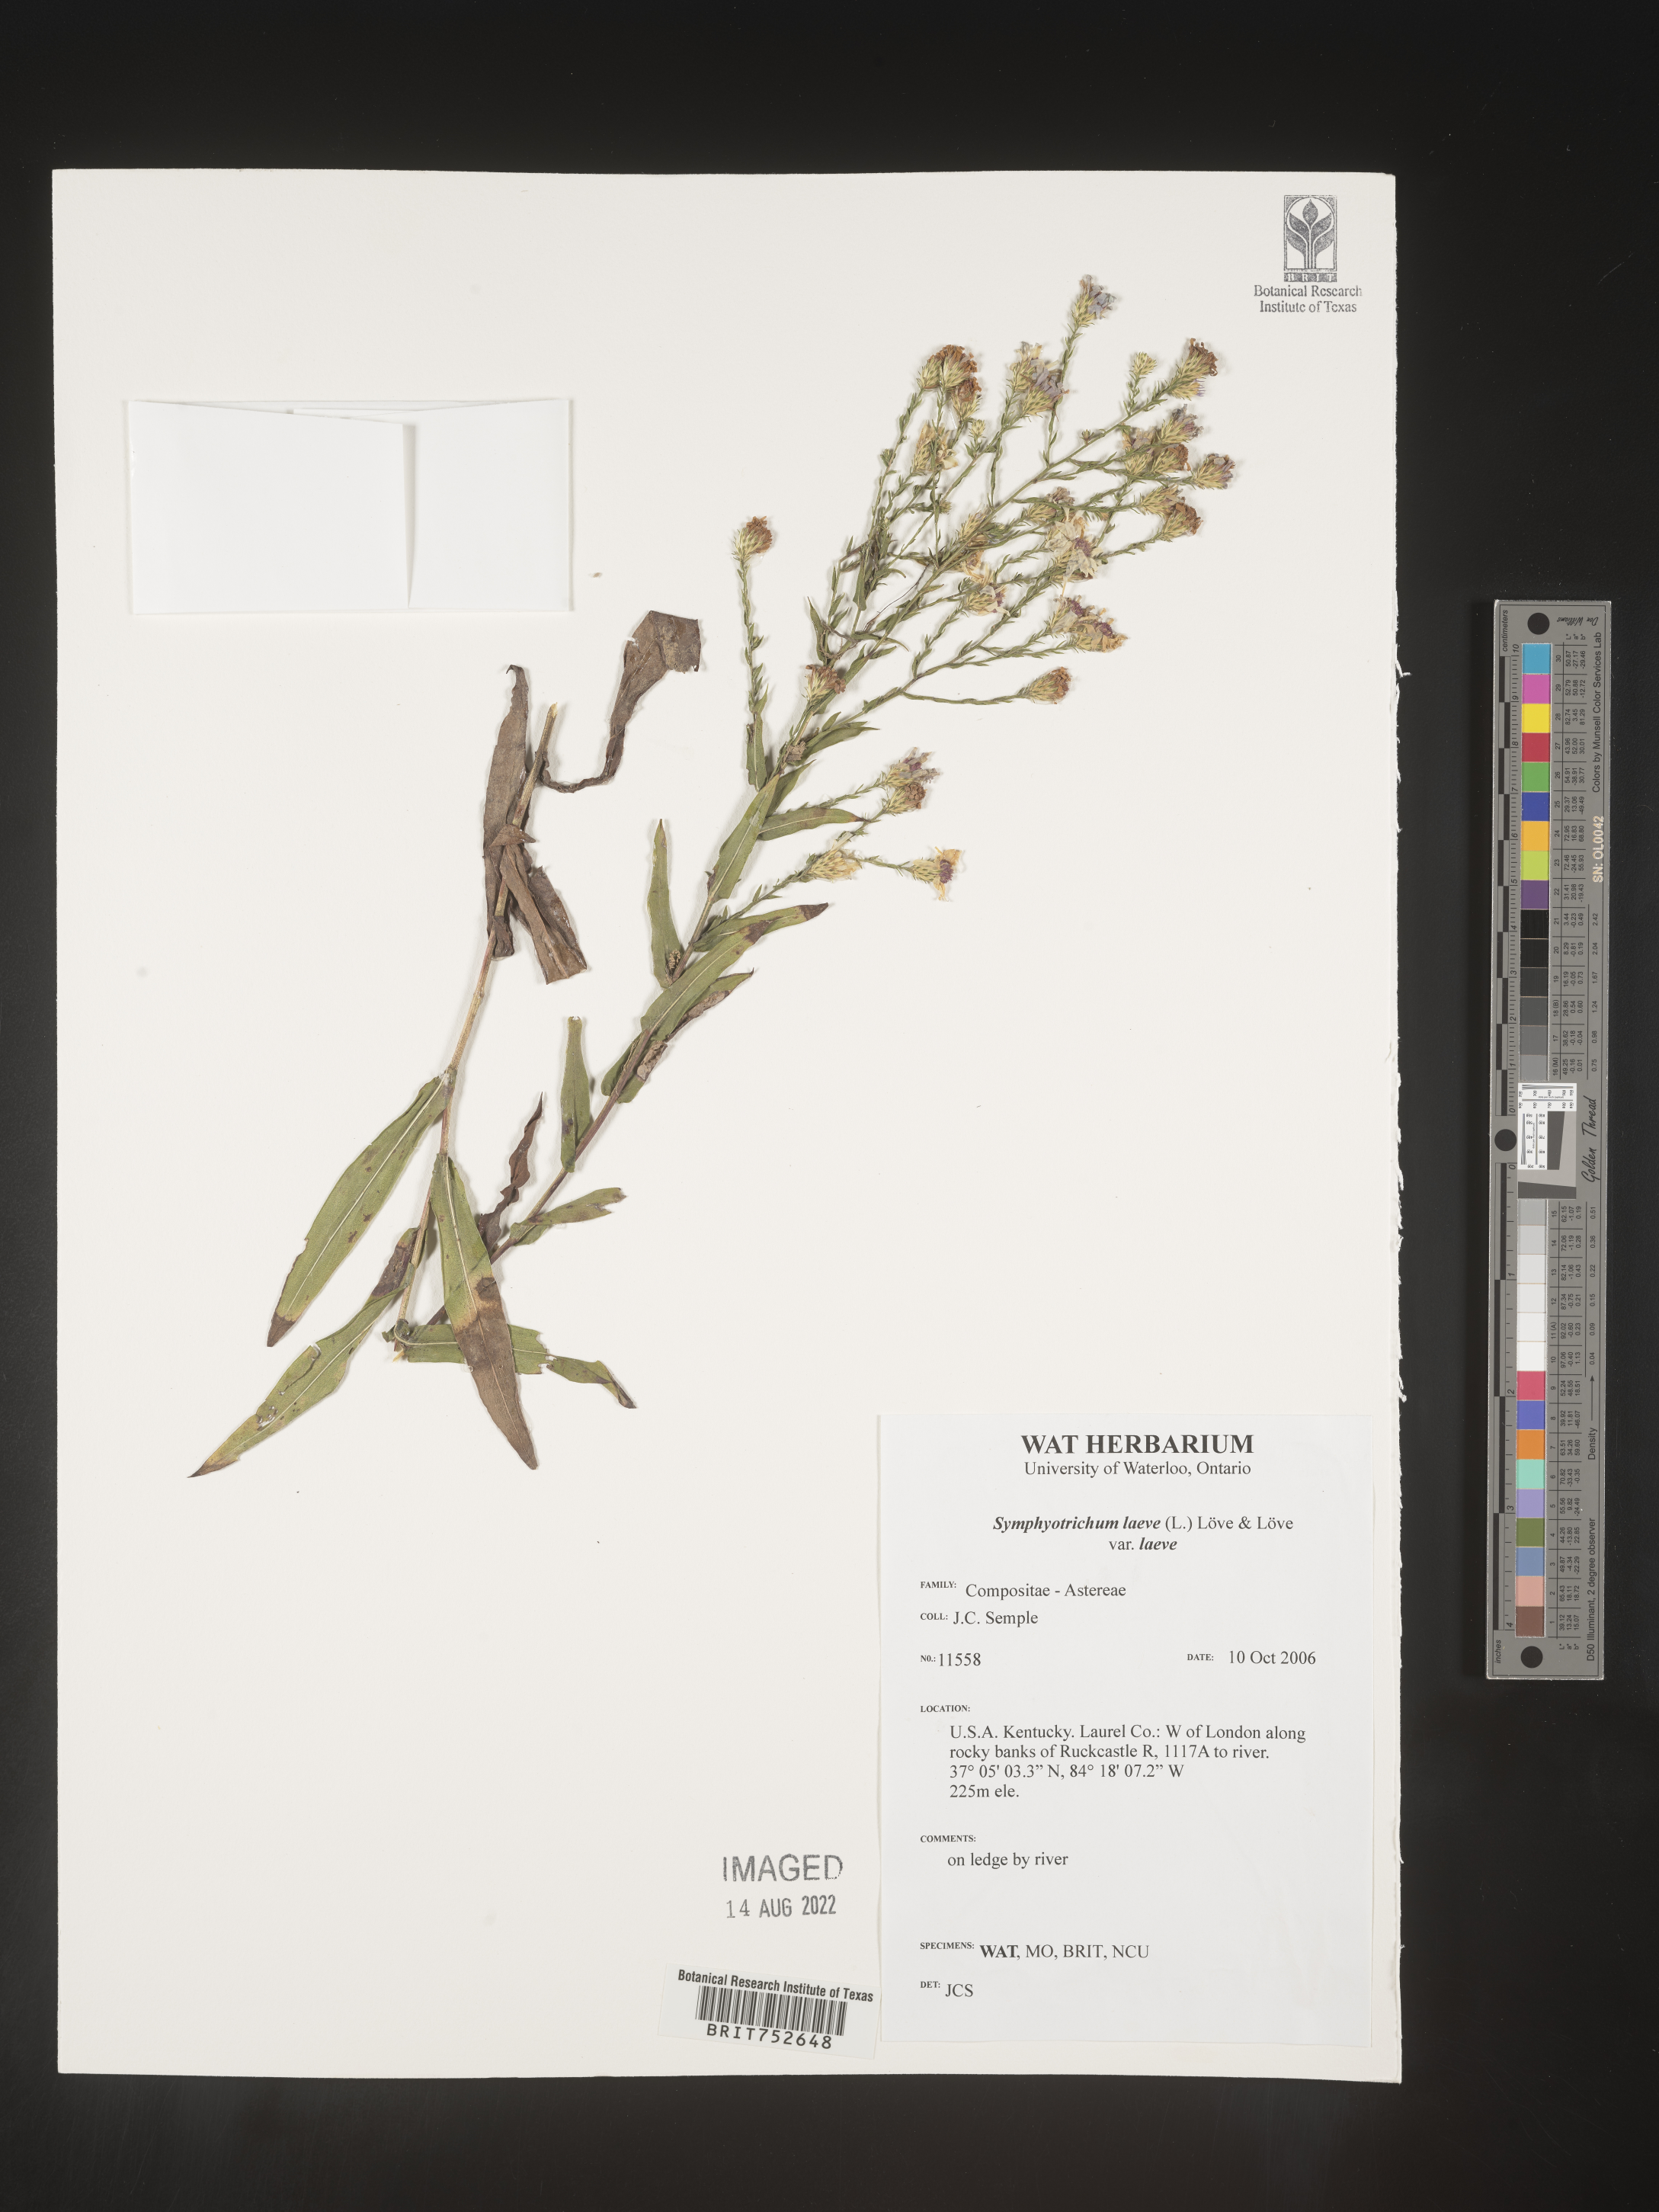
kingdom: Plantae
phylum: Tracheophyta
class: Magnoliopsida
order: Asterales
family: Asteraceae
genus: Symphyotrichum
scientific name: Symphyotrichum laeve
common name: Glaucous aster
